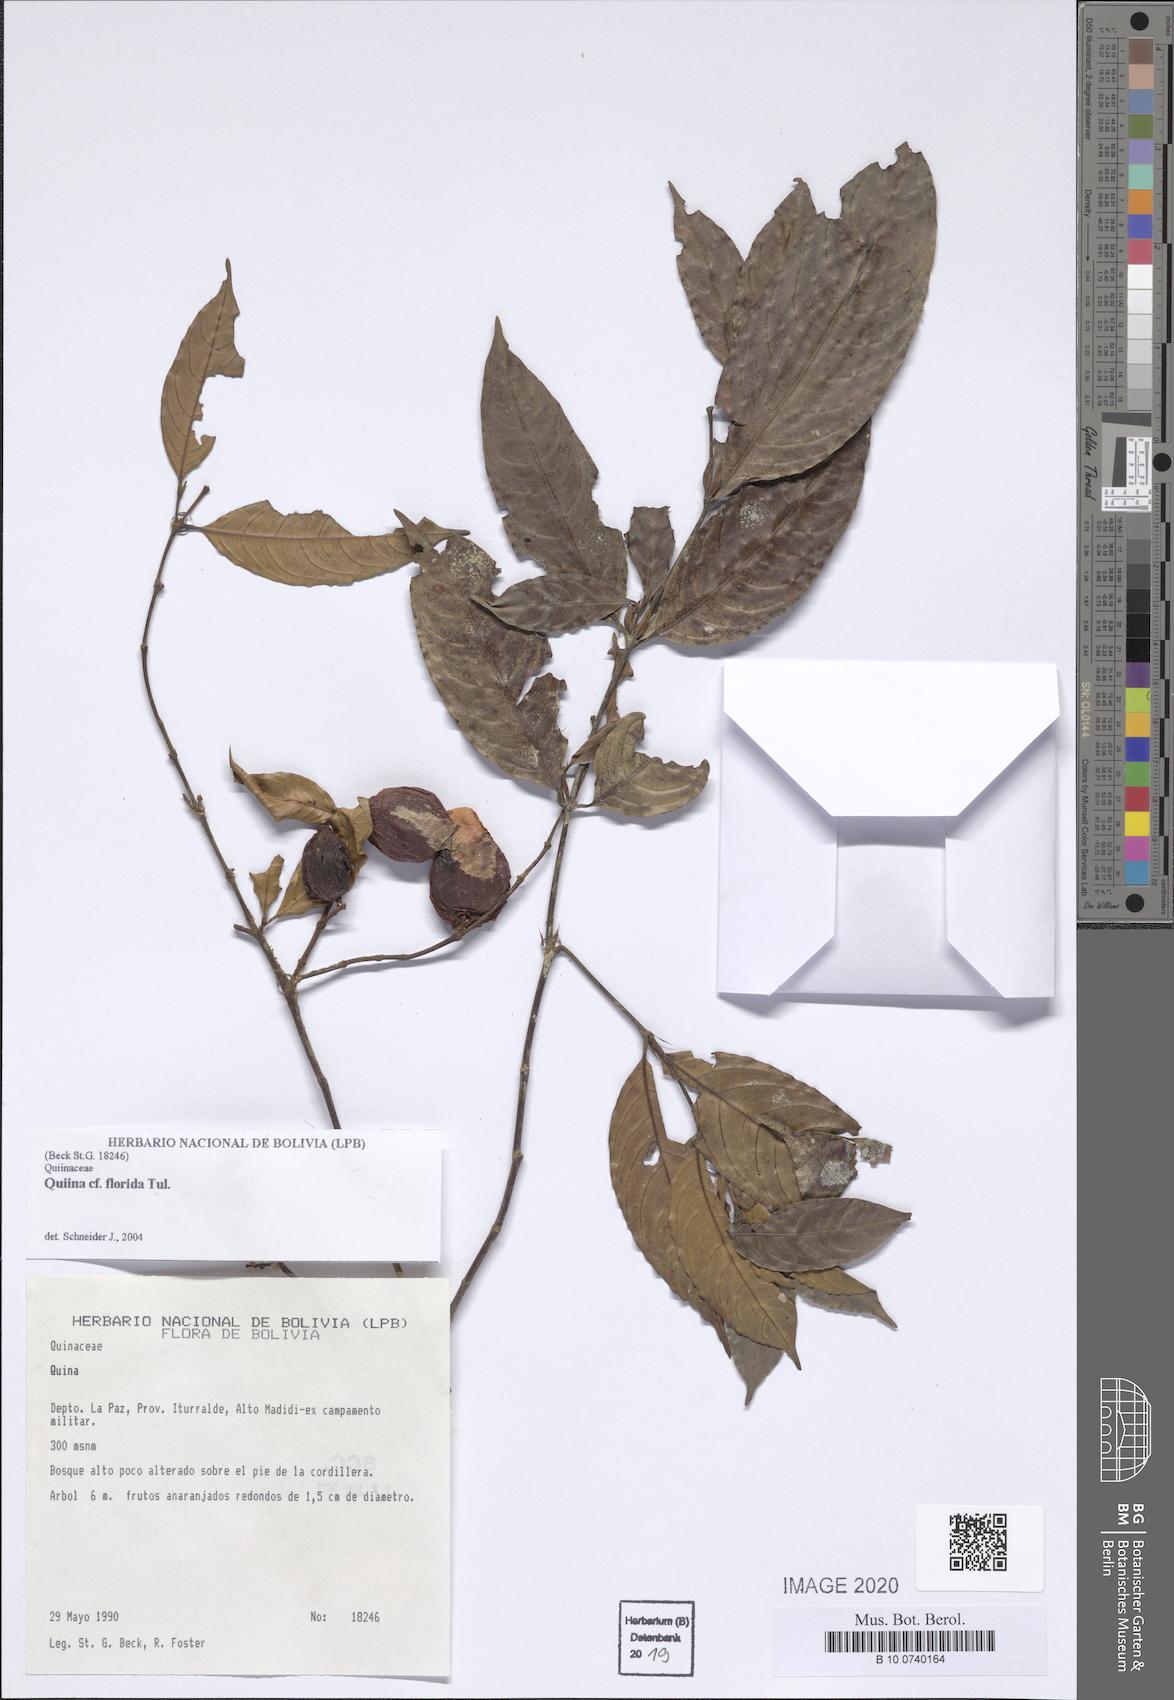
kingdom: Plantae
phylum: Tracheophyta
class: Magnoliopsida
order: Malpighiales
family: Quiinaceae
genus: Quiina
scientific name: Quiina florida
